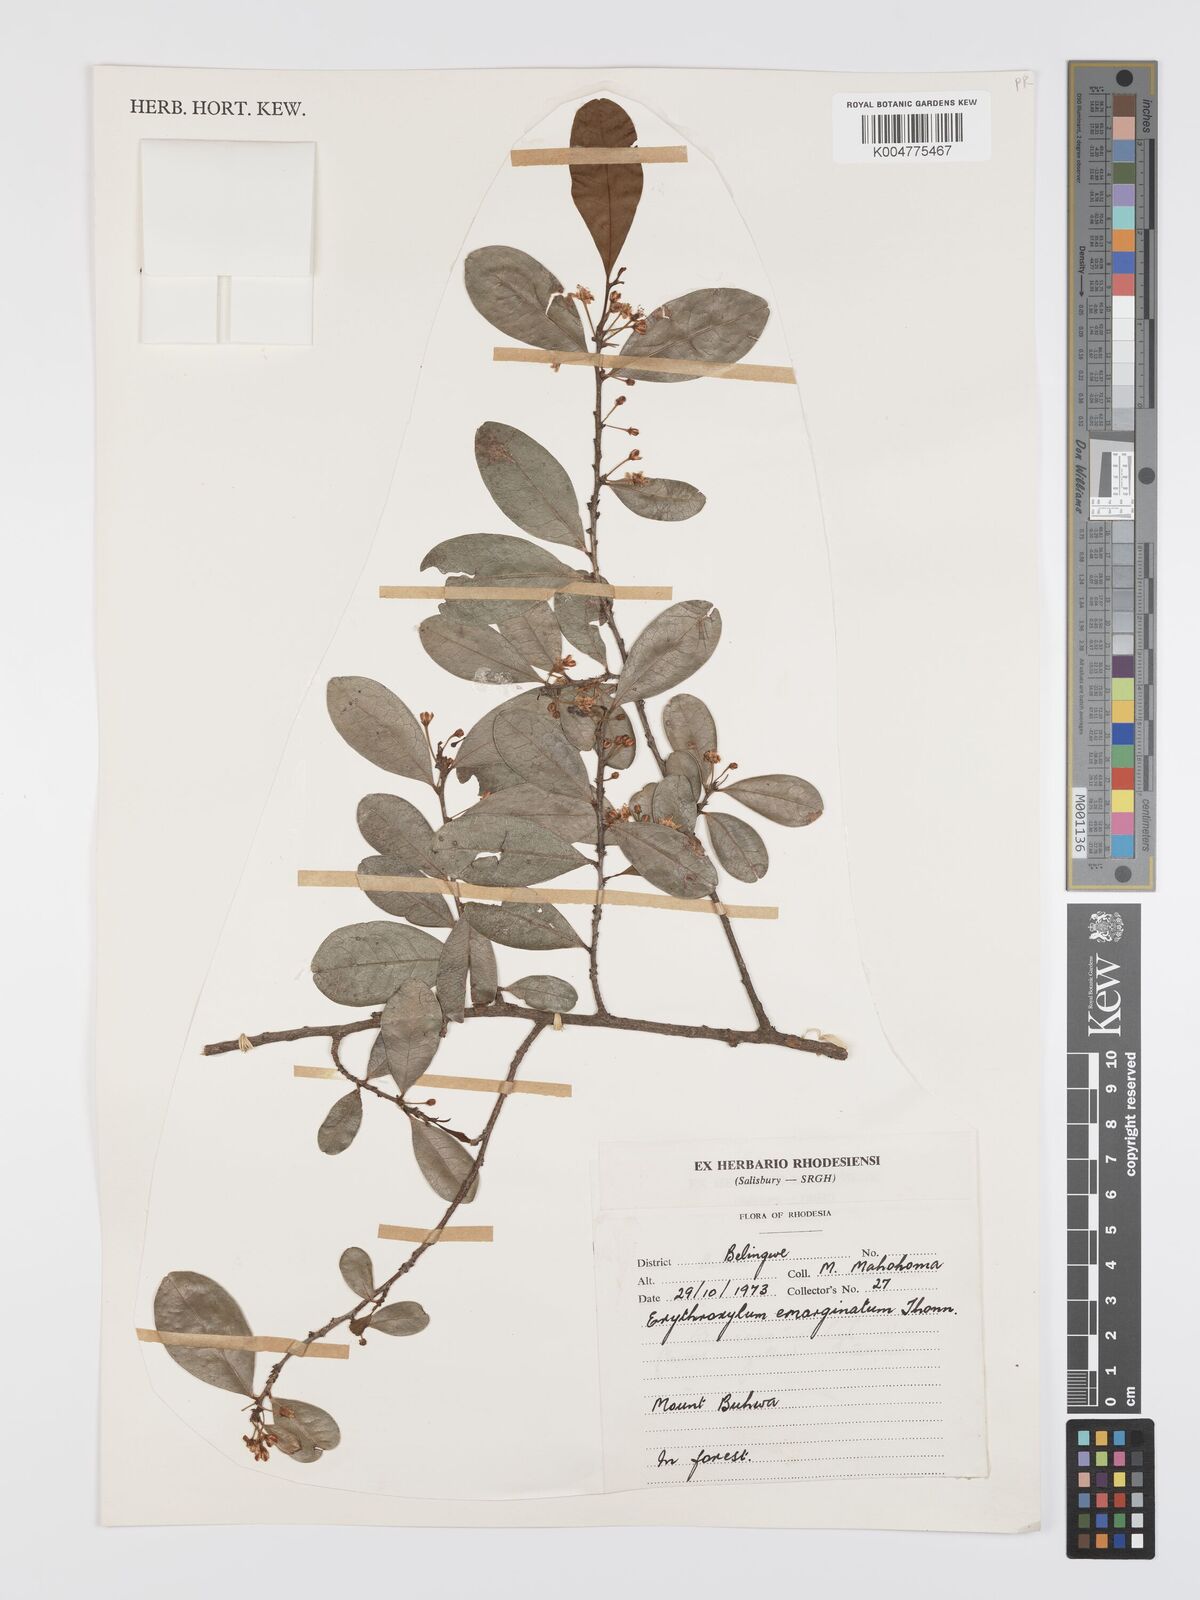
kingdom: Plantae
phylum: Tracheophyta
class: Magnoliopsida
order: Malpighiales
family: Erythroxylaceae
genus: Erythroxylum
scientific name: Erythroxylum emarginatum
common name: African coca-tree
